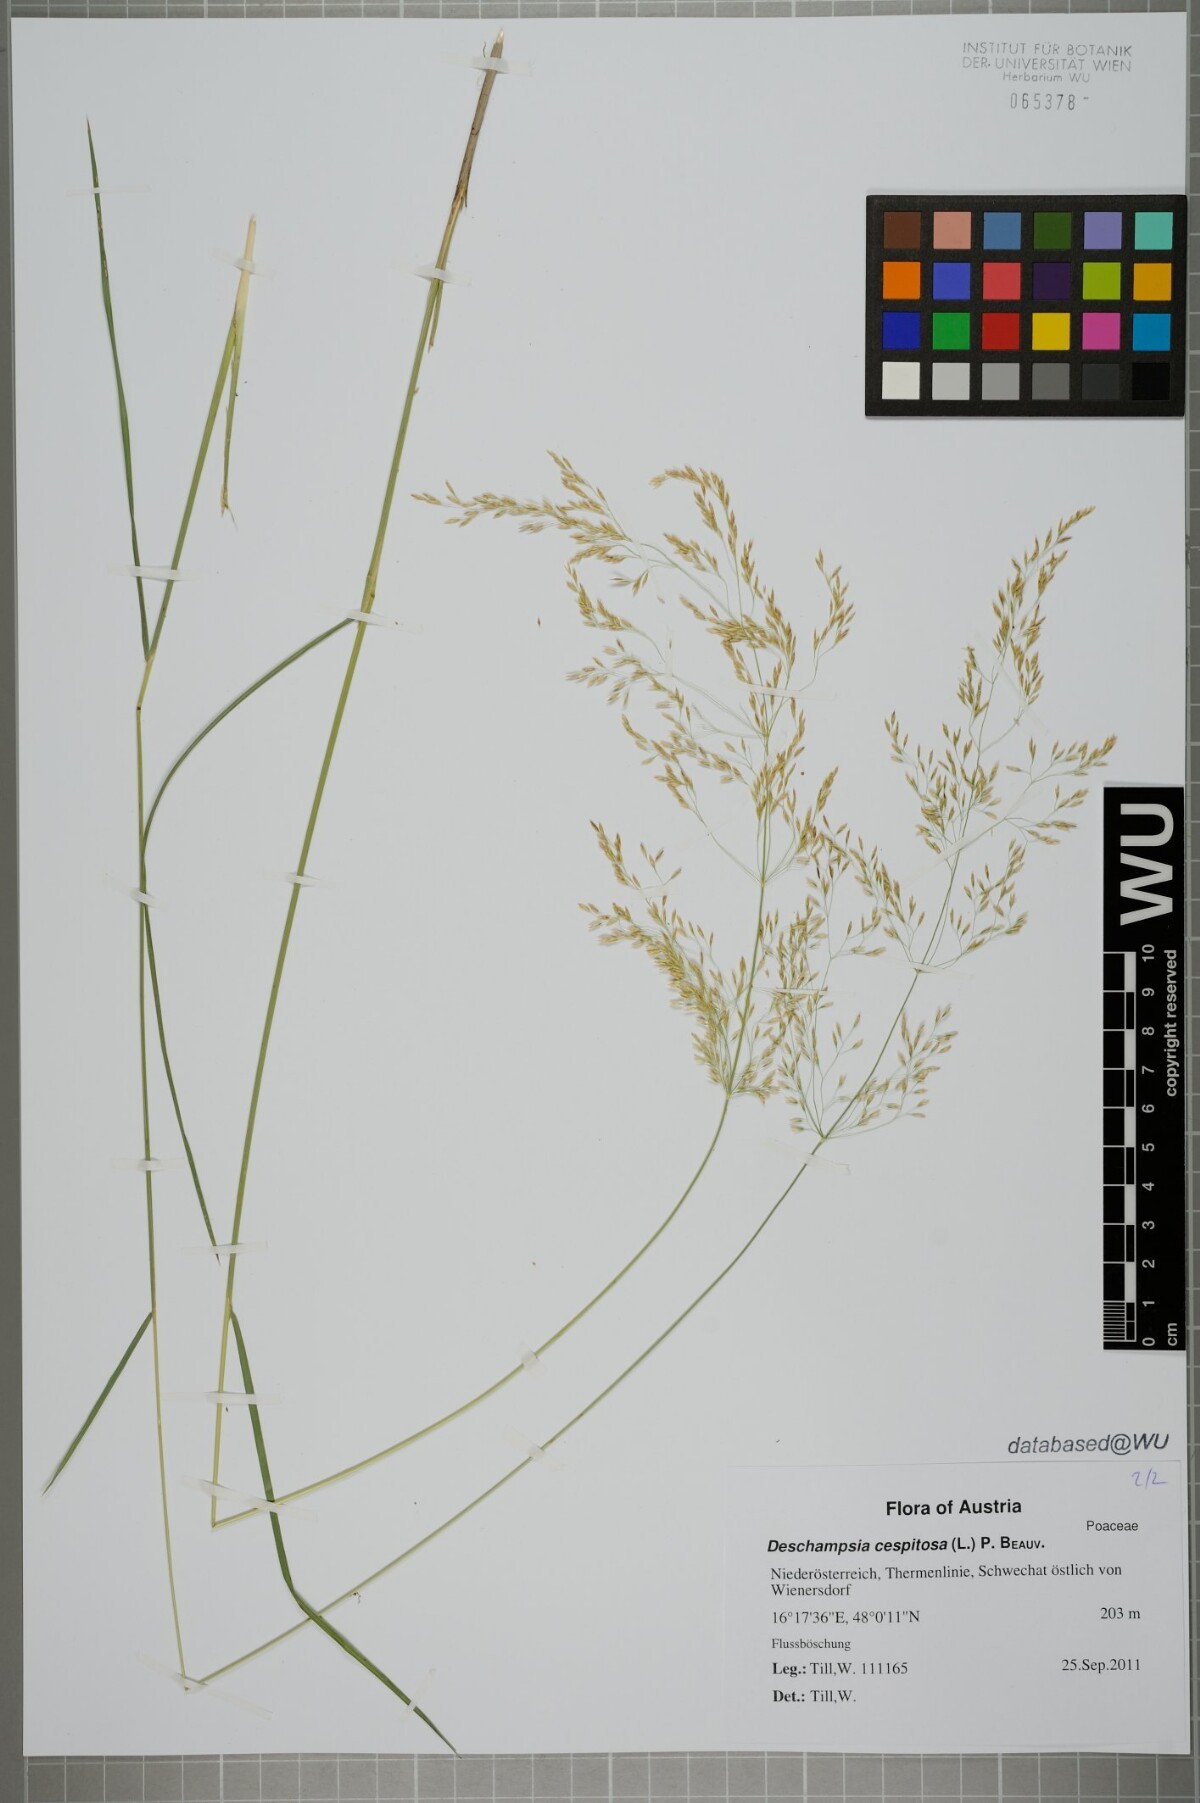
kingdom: Plantae
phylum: Tracheophyta
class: Liliopsida
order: Poales
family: Poaceae
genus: Deschampsia
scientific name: Deschampsia cespitosa
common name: Tufted hair-grass
